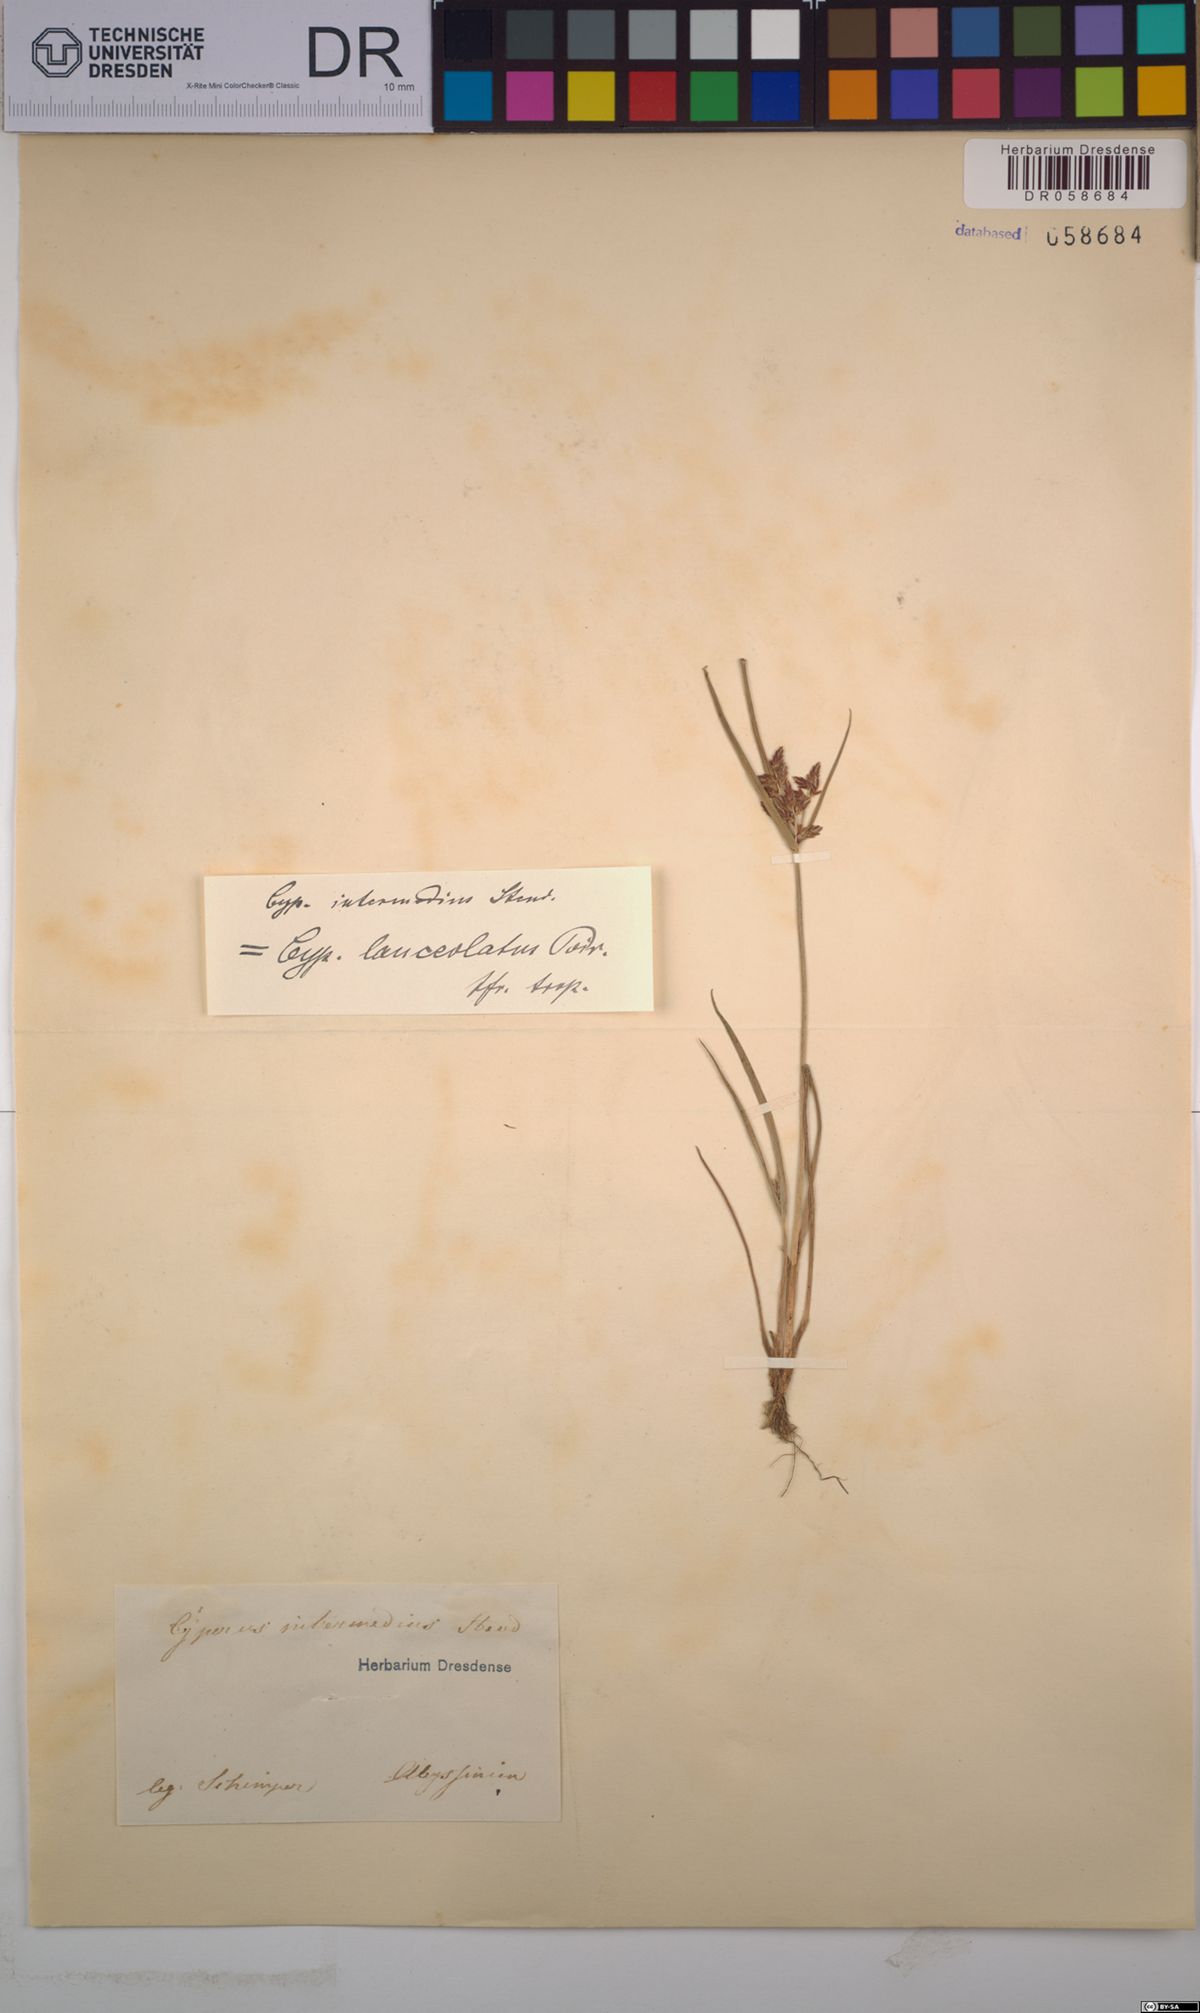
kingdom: Plantae
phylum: Tracheophyta
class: Liliopsida
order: Poales
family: Cyperaceae
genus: Cyperus
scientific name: Cyperus flavescens
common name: Yellow galingale
